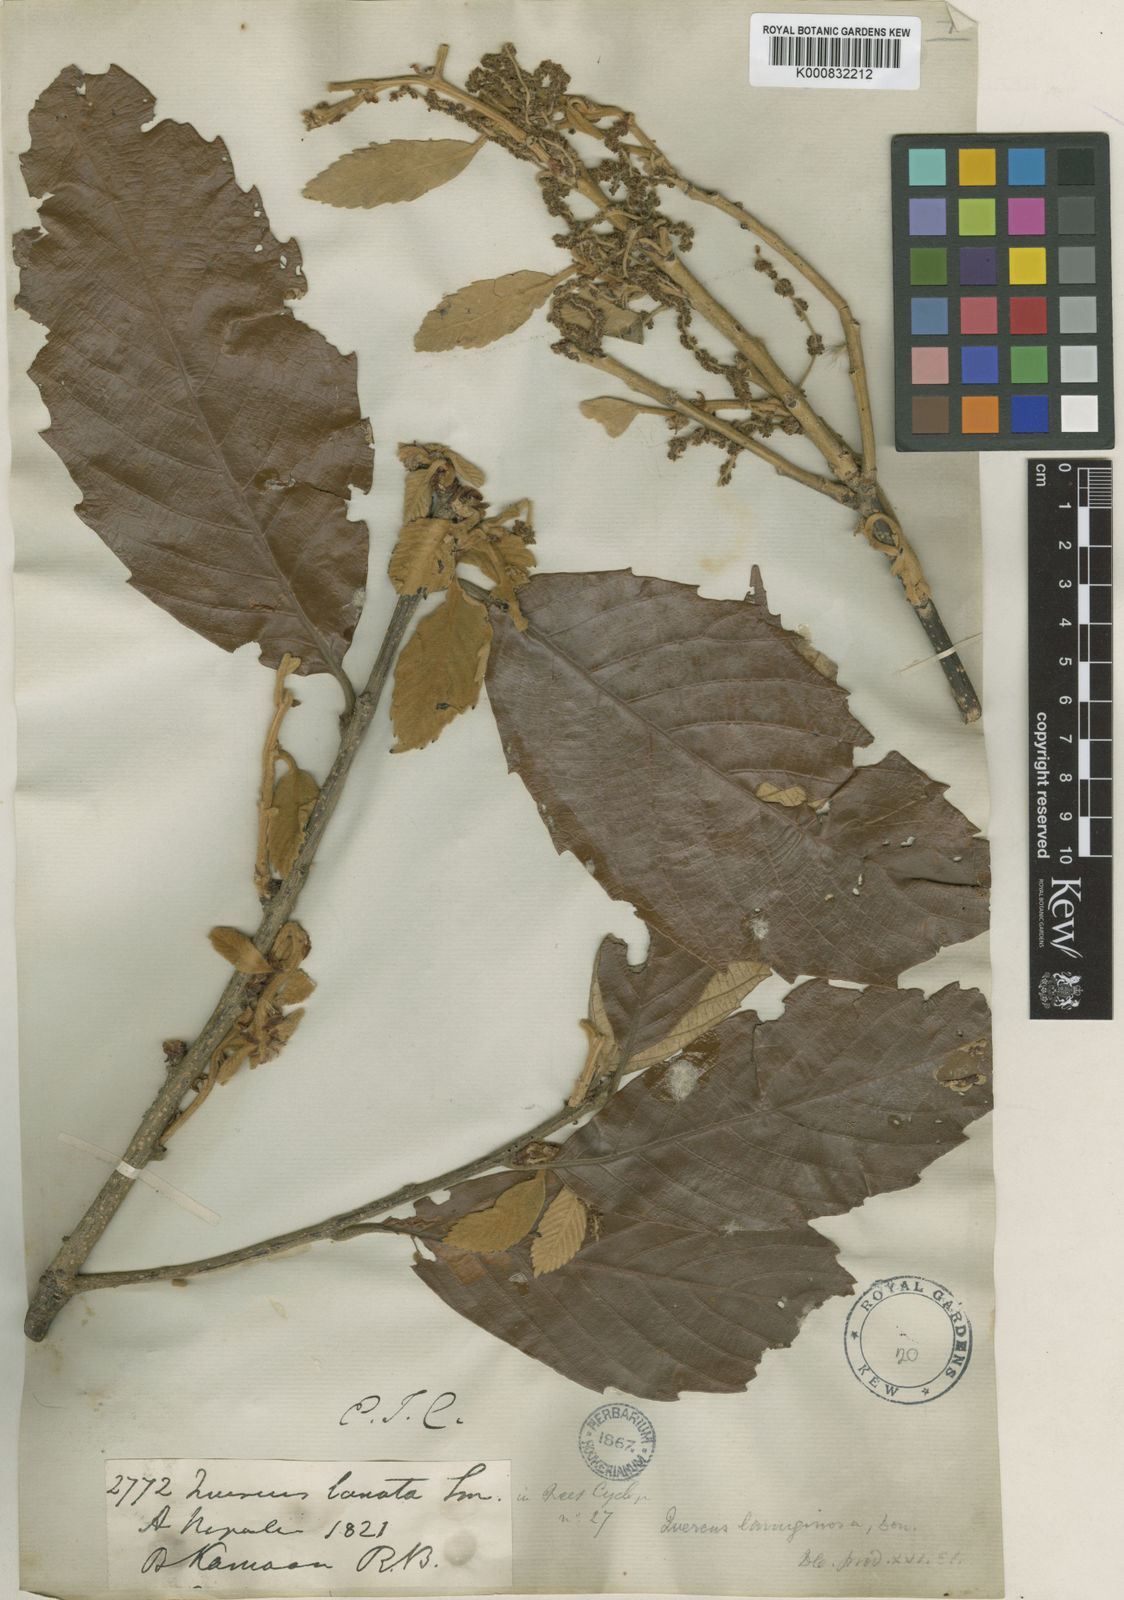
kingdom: Plantae
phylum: Tracheophyta
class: Magnoliopsida
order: Fagales
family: Fagaceae
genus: Quercus
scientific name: Quercus lanata
